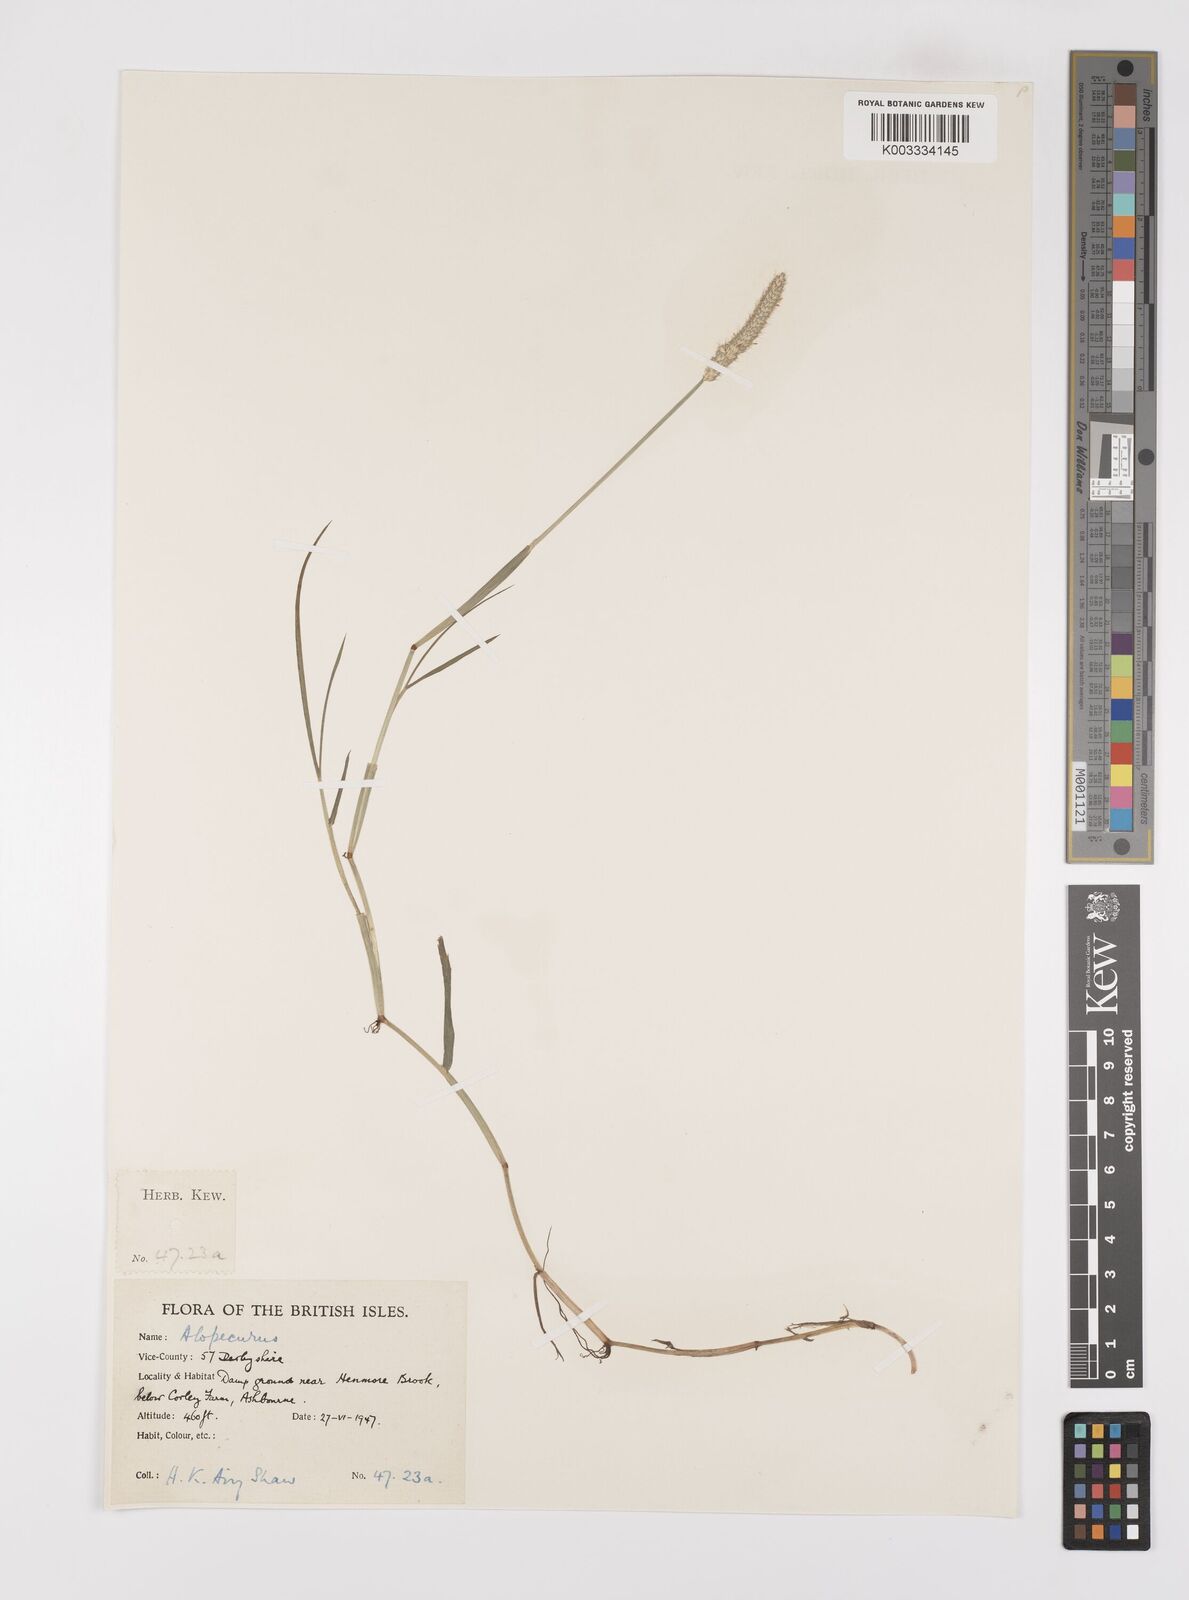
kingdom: Plantae
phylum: Tracheophyta
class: Liliopsida
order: Poales
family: Poaceae
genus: Alopecurus
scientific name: Alopecurus geniculatus
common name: Water foxtail
